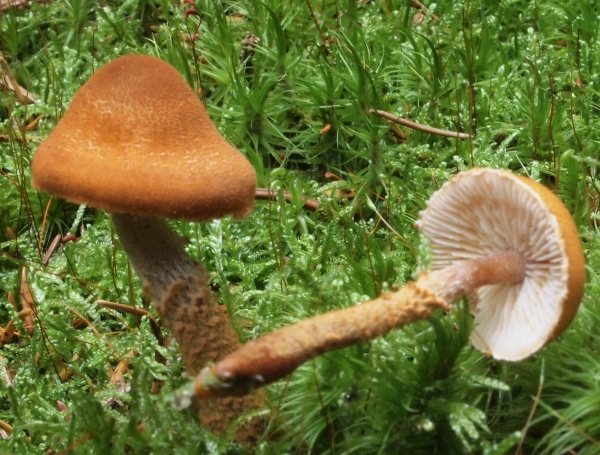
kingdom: Fungi
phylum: Basidiomycota
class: Agaricomycetes
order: Agaricales
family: Tricholomataceae
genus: Cystoderma
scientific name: Cystoderma
